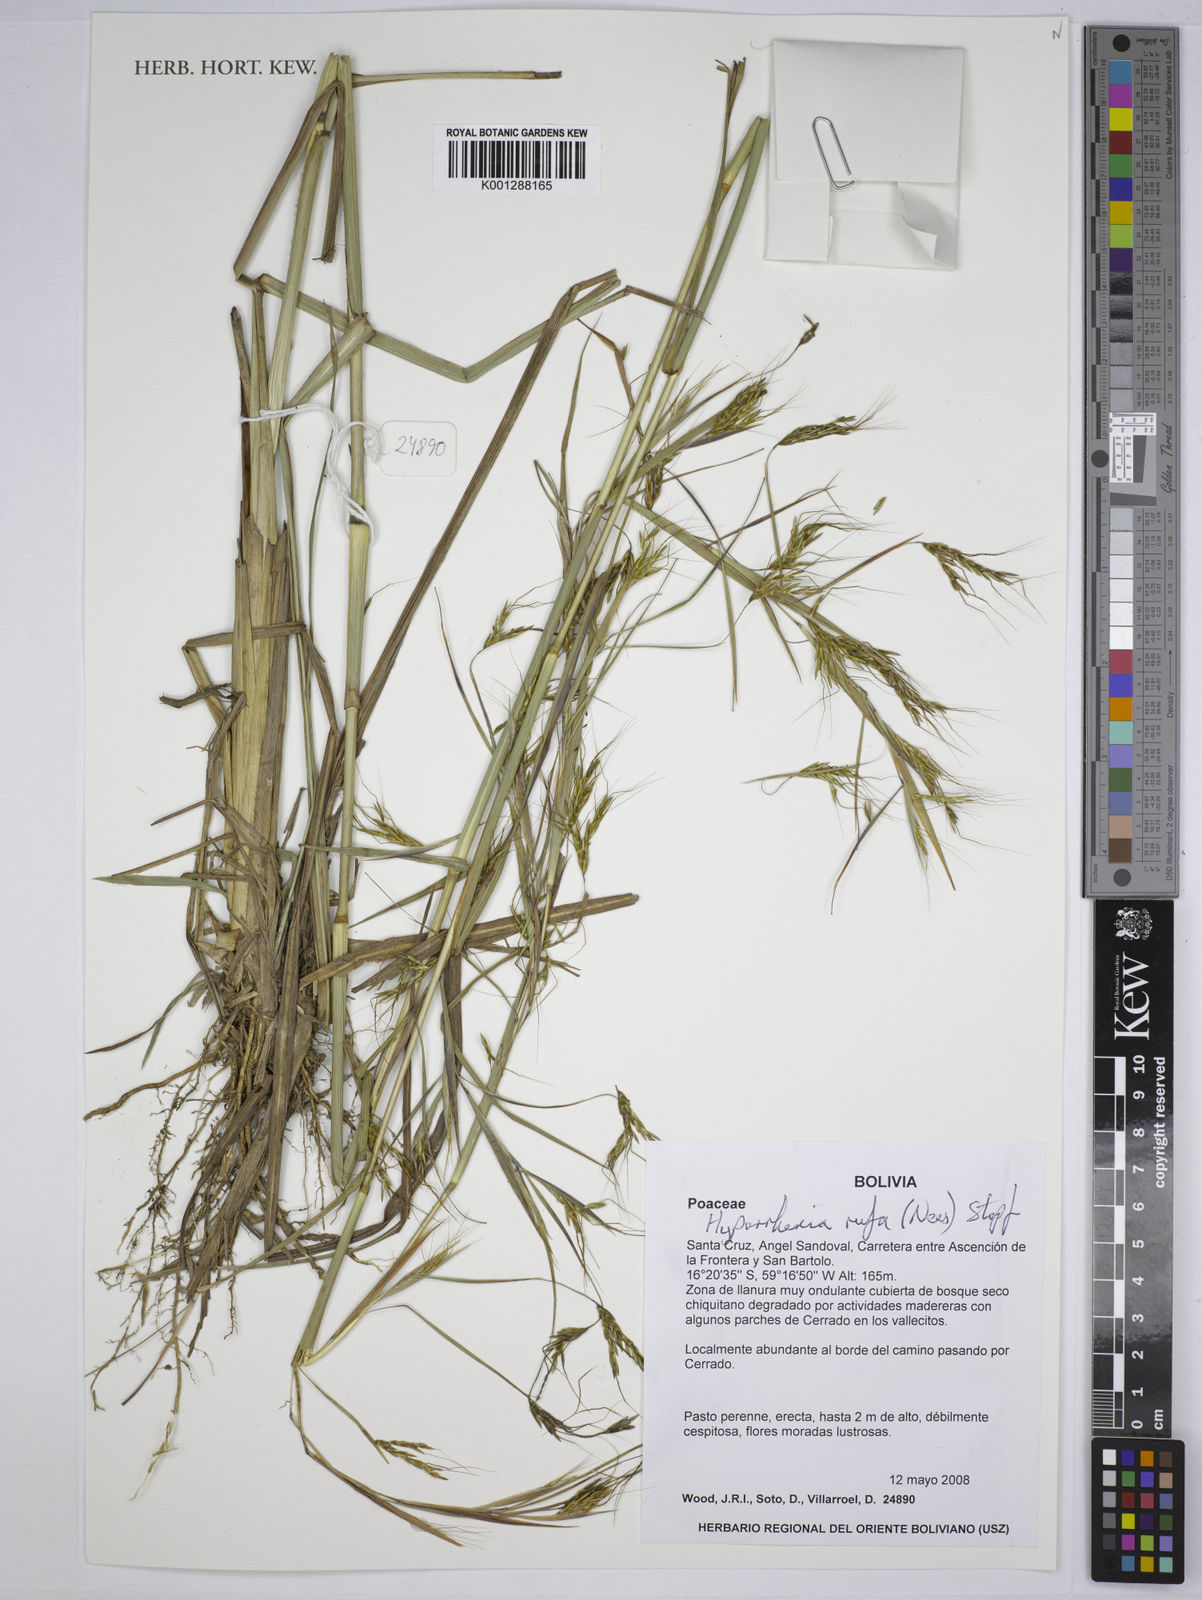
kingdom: Plantae
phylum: Tracheophyta
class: Liliopsida
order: Poales
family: Poaceae
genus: Hyparrhenia
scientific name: Hyparrhenia rufa
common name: Jaraguagrass
